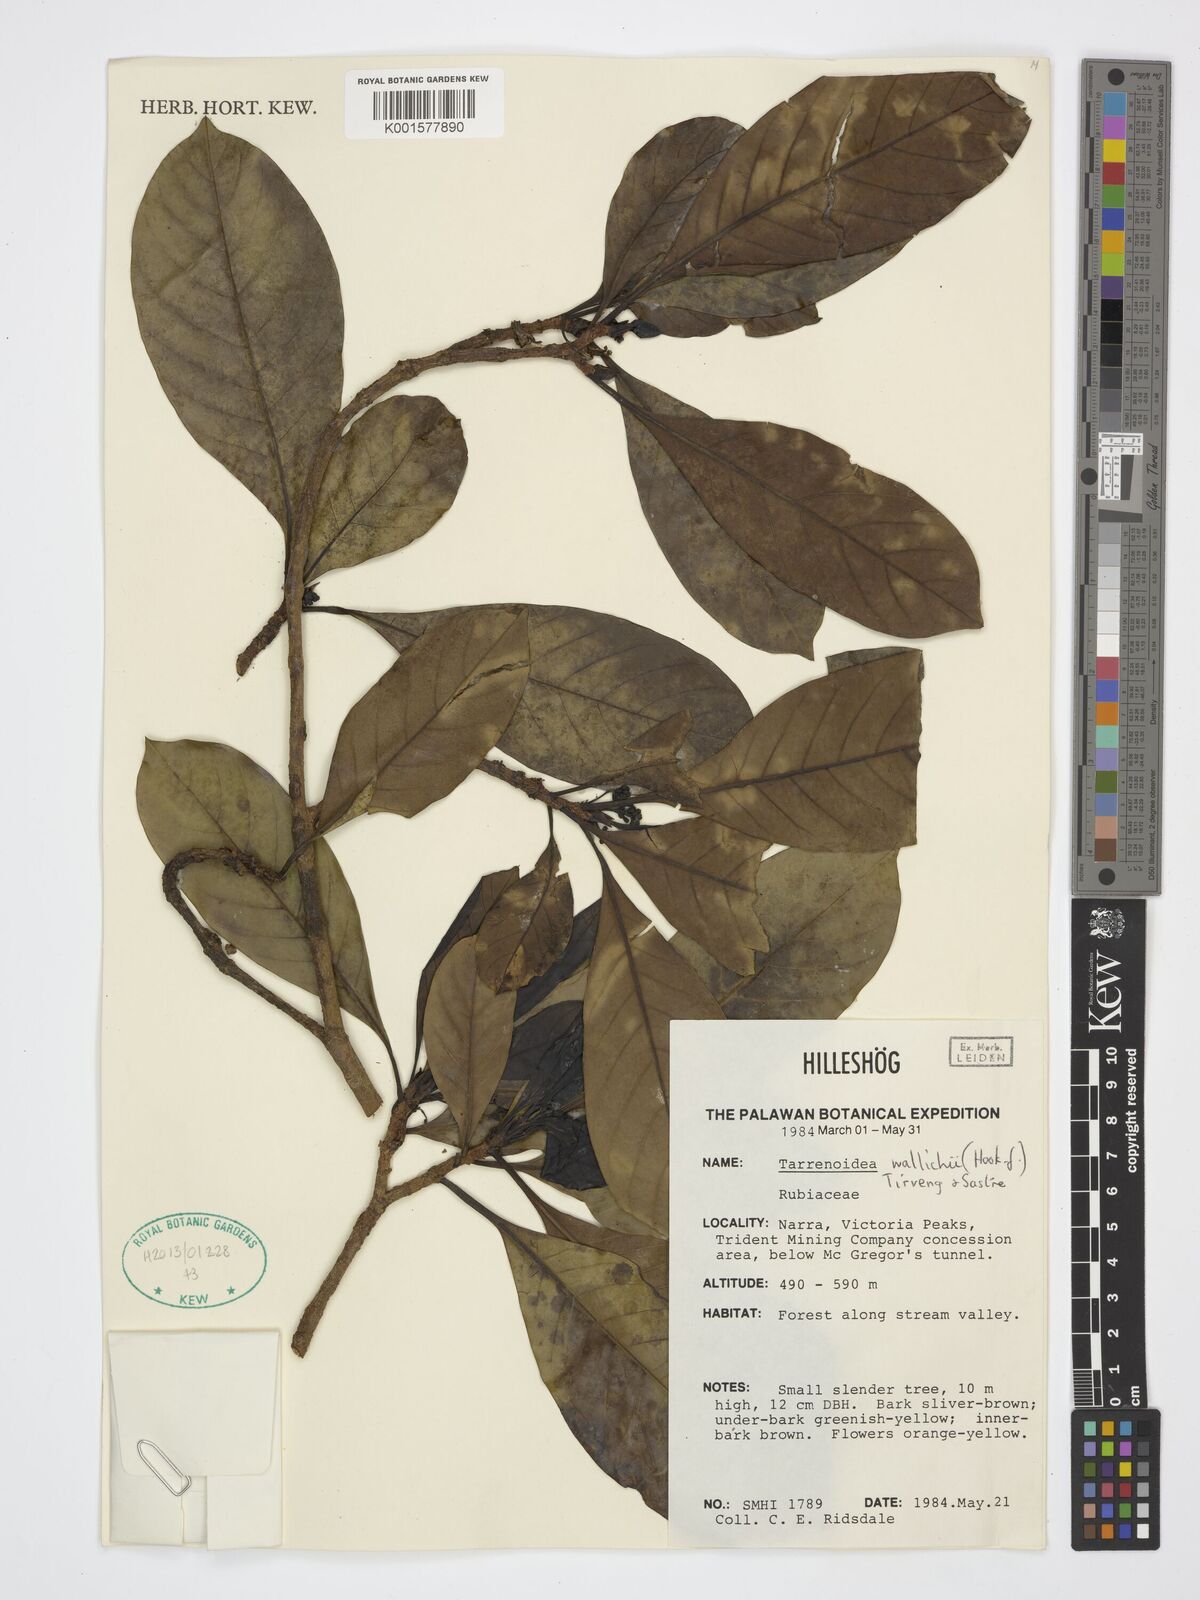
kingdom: Plantae
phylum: Tracheophyta
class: Magnoliopsida
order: Gentianales
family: Rubiaceae
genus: Tarennoidea
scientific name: Tarennoidea wallichii
